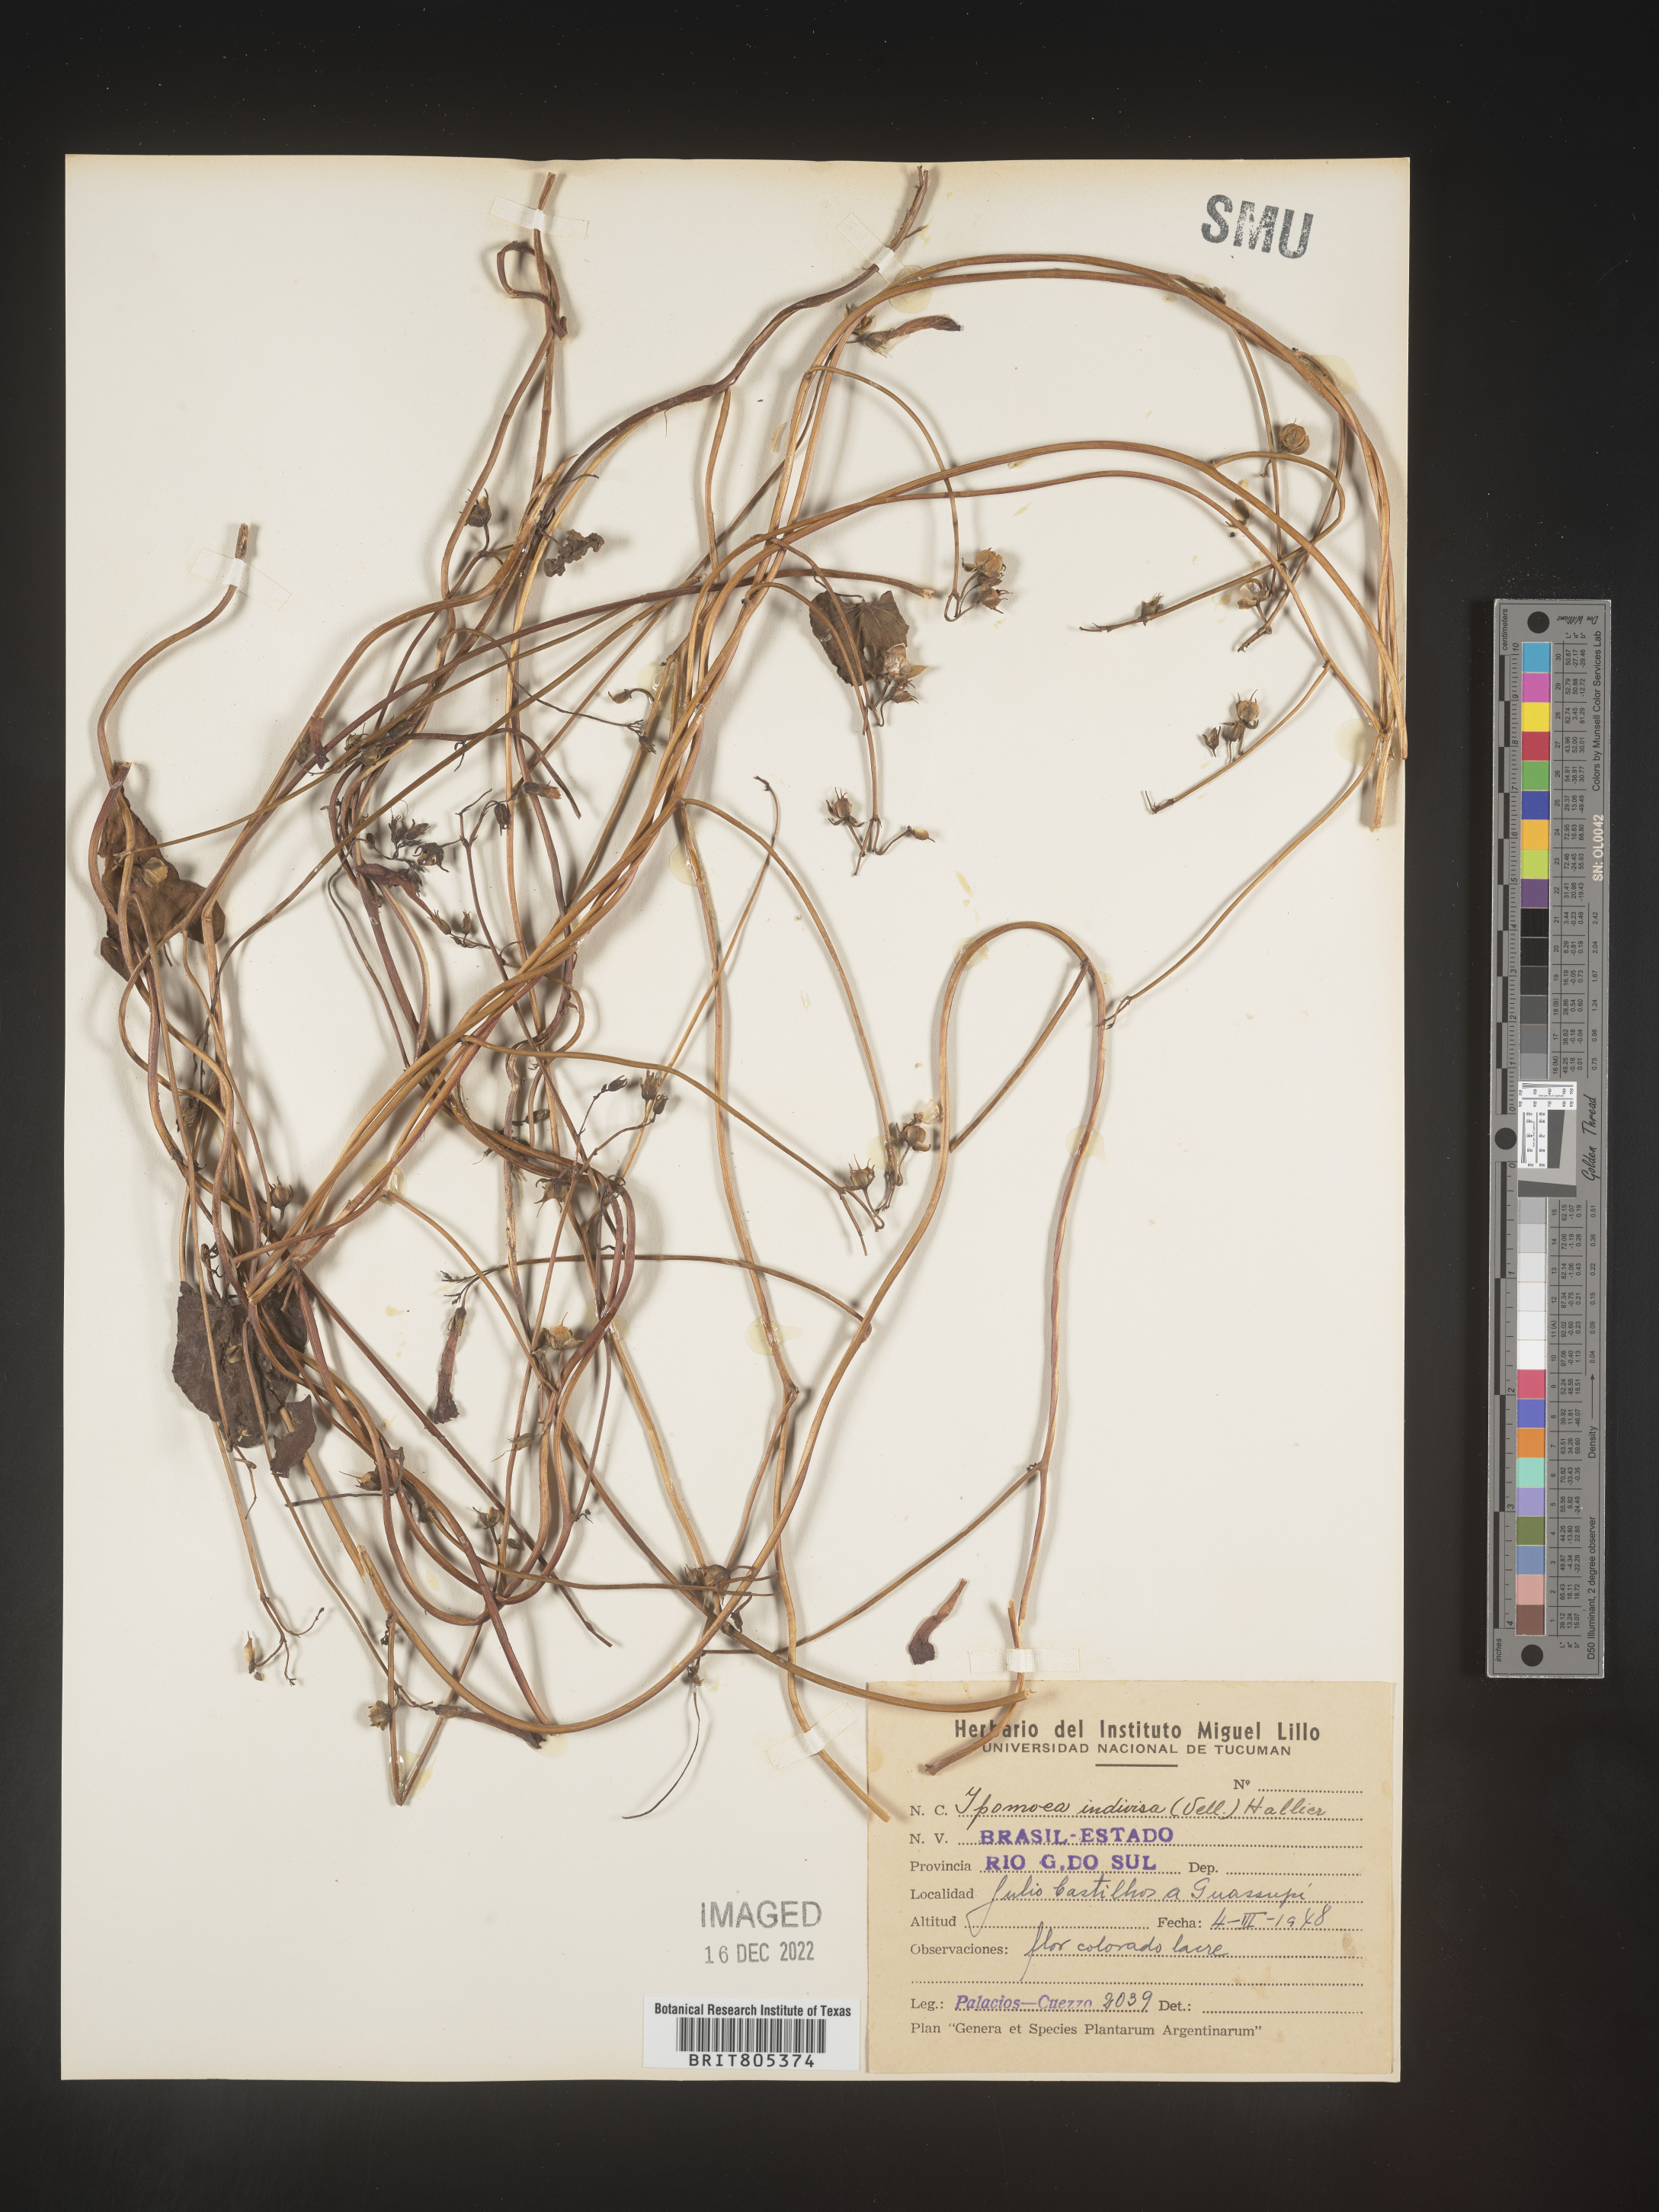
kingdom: Plantae
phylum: Tracheophyta
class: Magnoliopsida
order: Solanales
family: Convolvulaceae
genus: Ipomoea
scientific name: Ipomoea
